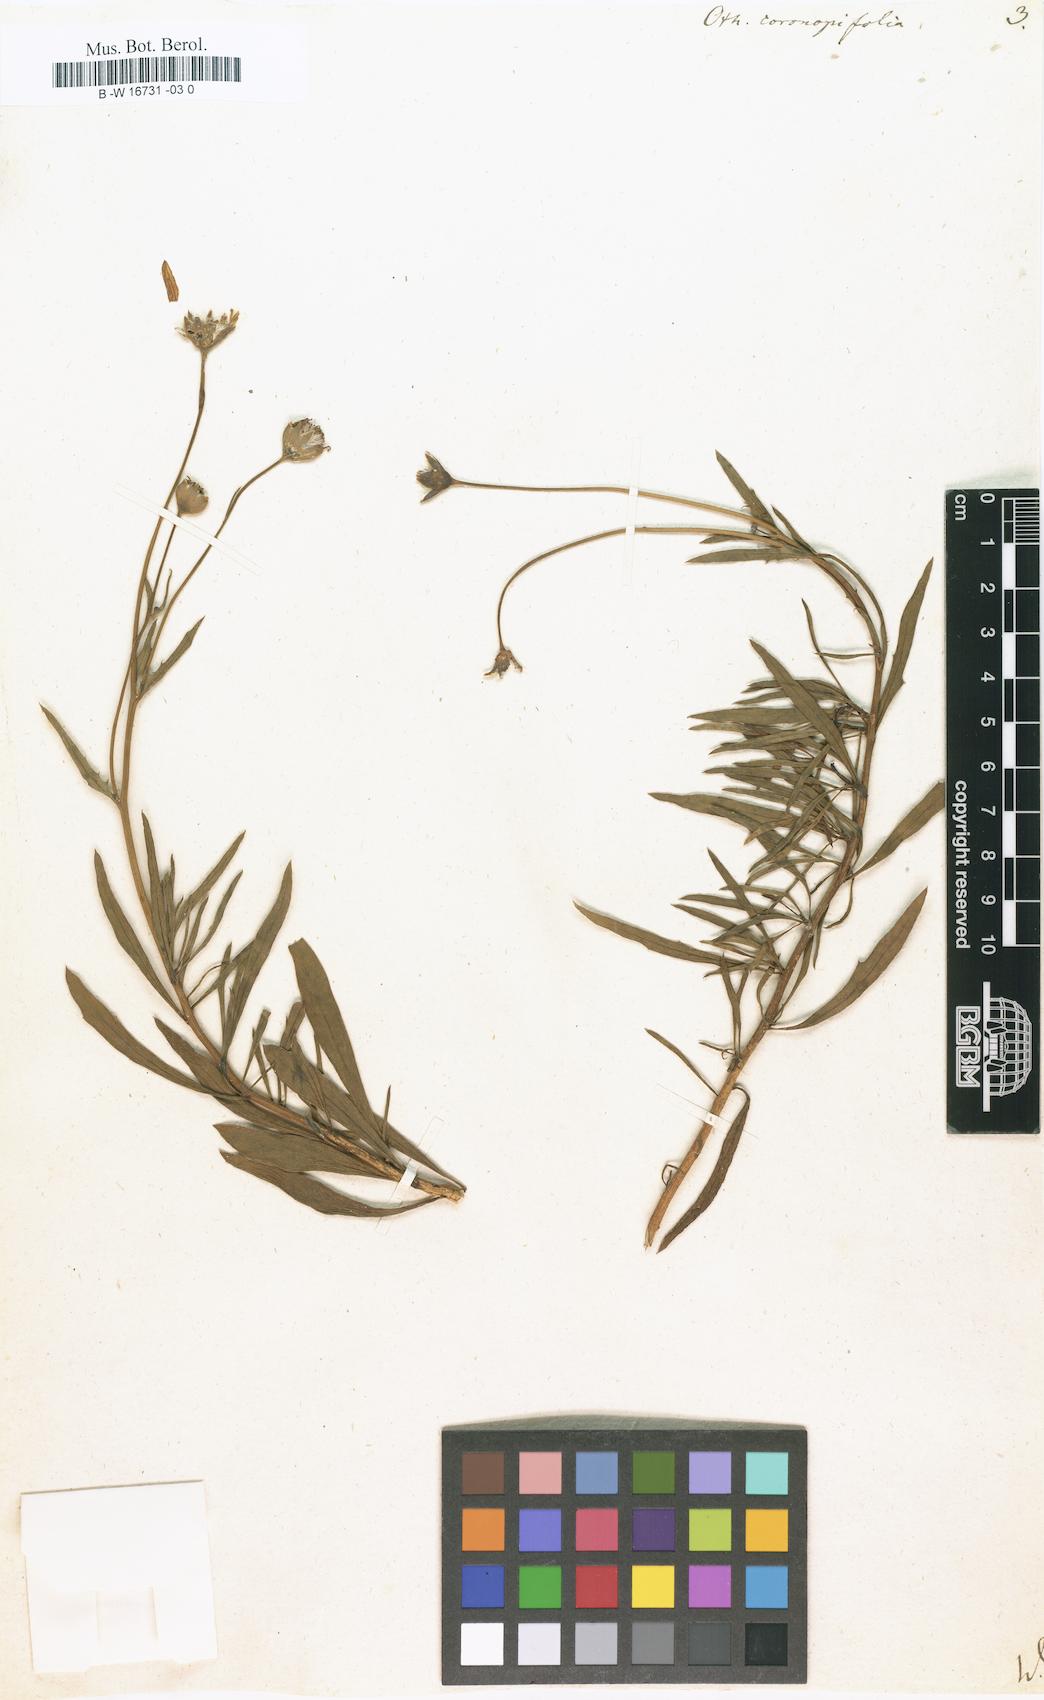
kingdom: Plantae
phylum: Tracheophyta
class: Magnoliopsida
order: Asterales
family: Asteraceae
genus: Othonna
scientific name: Othonna coronopifolia
